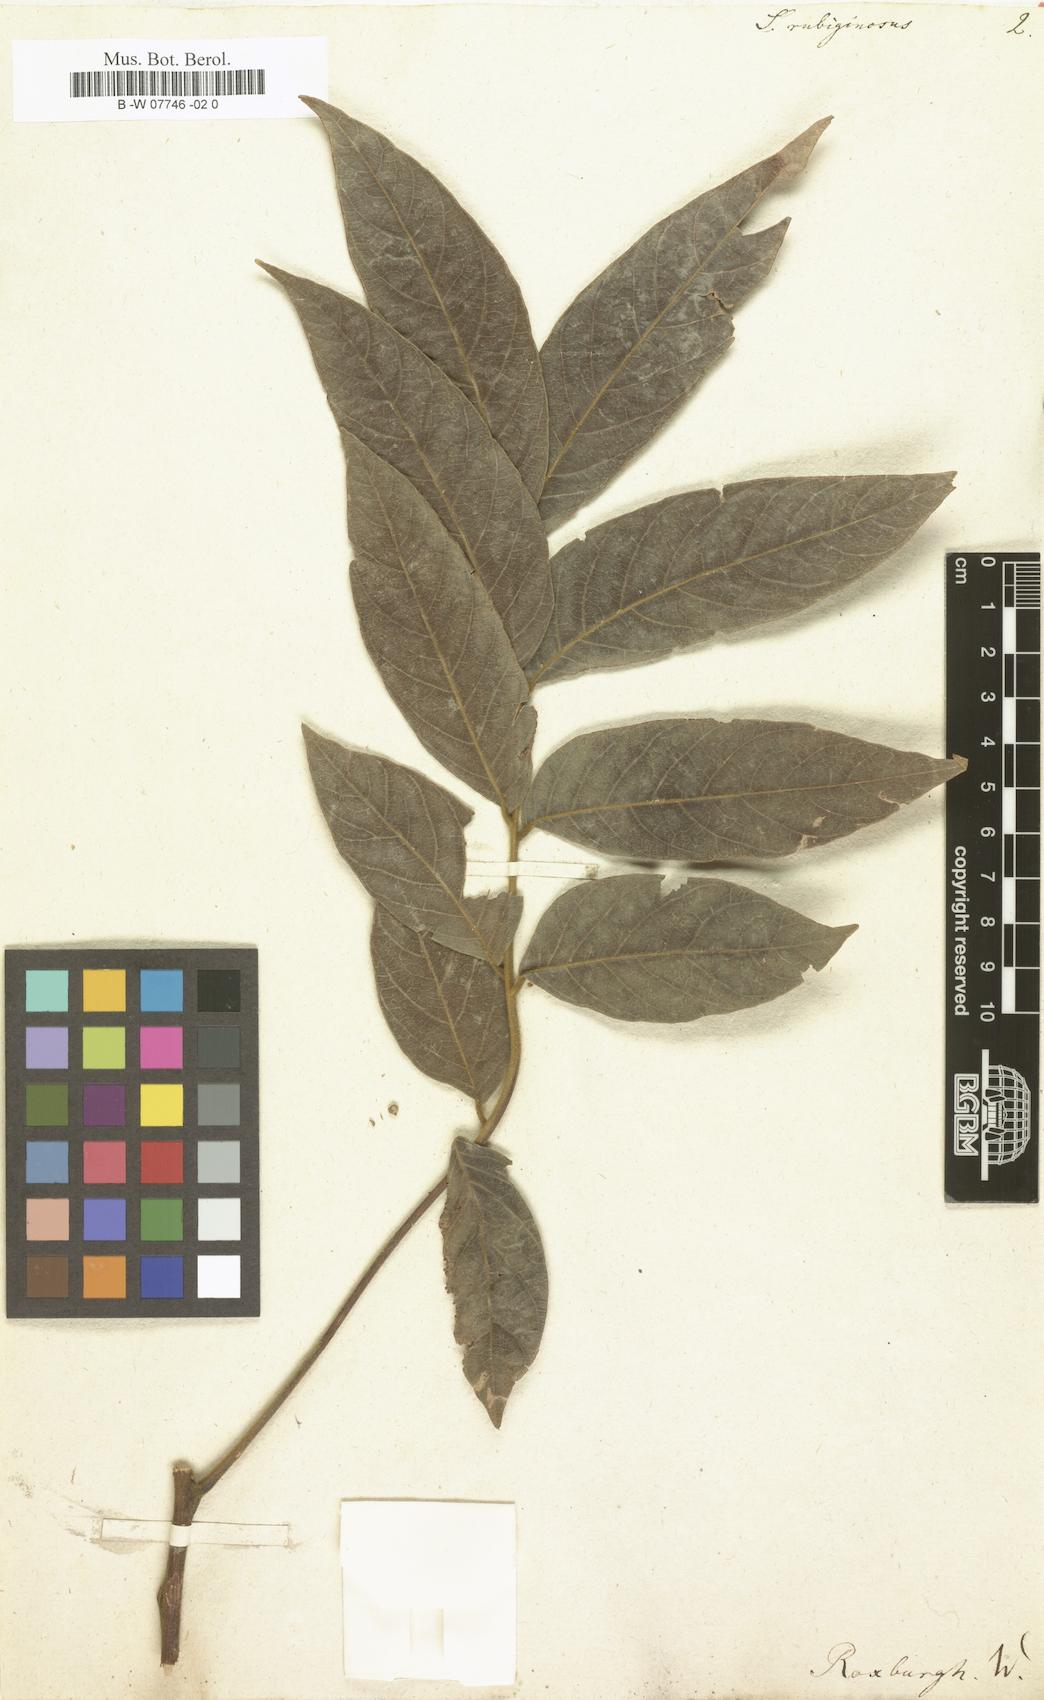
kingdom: Plantae
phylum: Tracheophyta
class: Magnoliopsida
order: Sapindales
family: Sapindaceae
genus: Lepisanthes
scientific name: Lepisanthes rubiginosa
